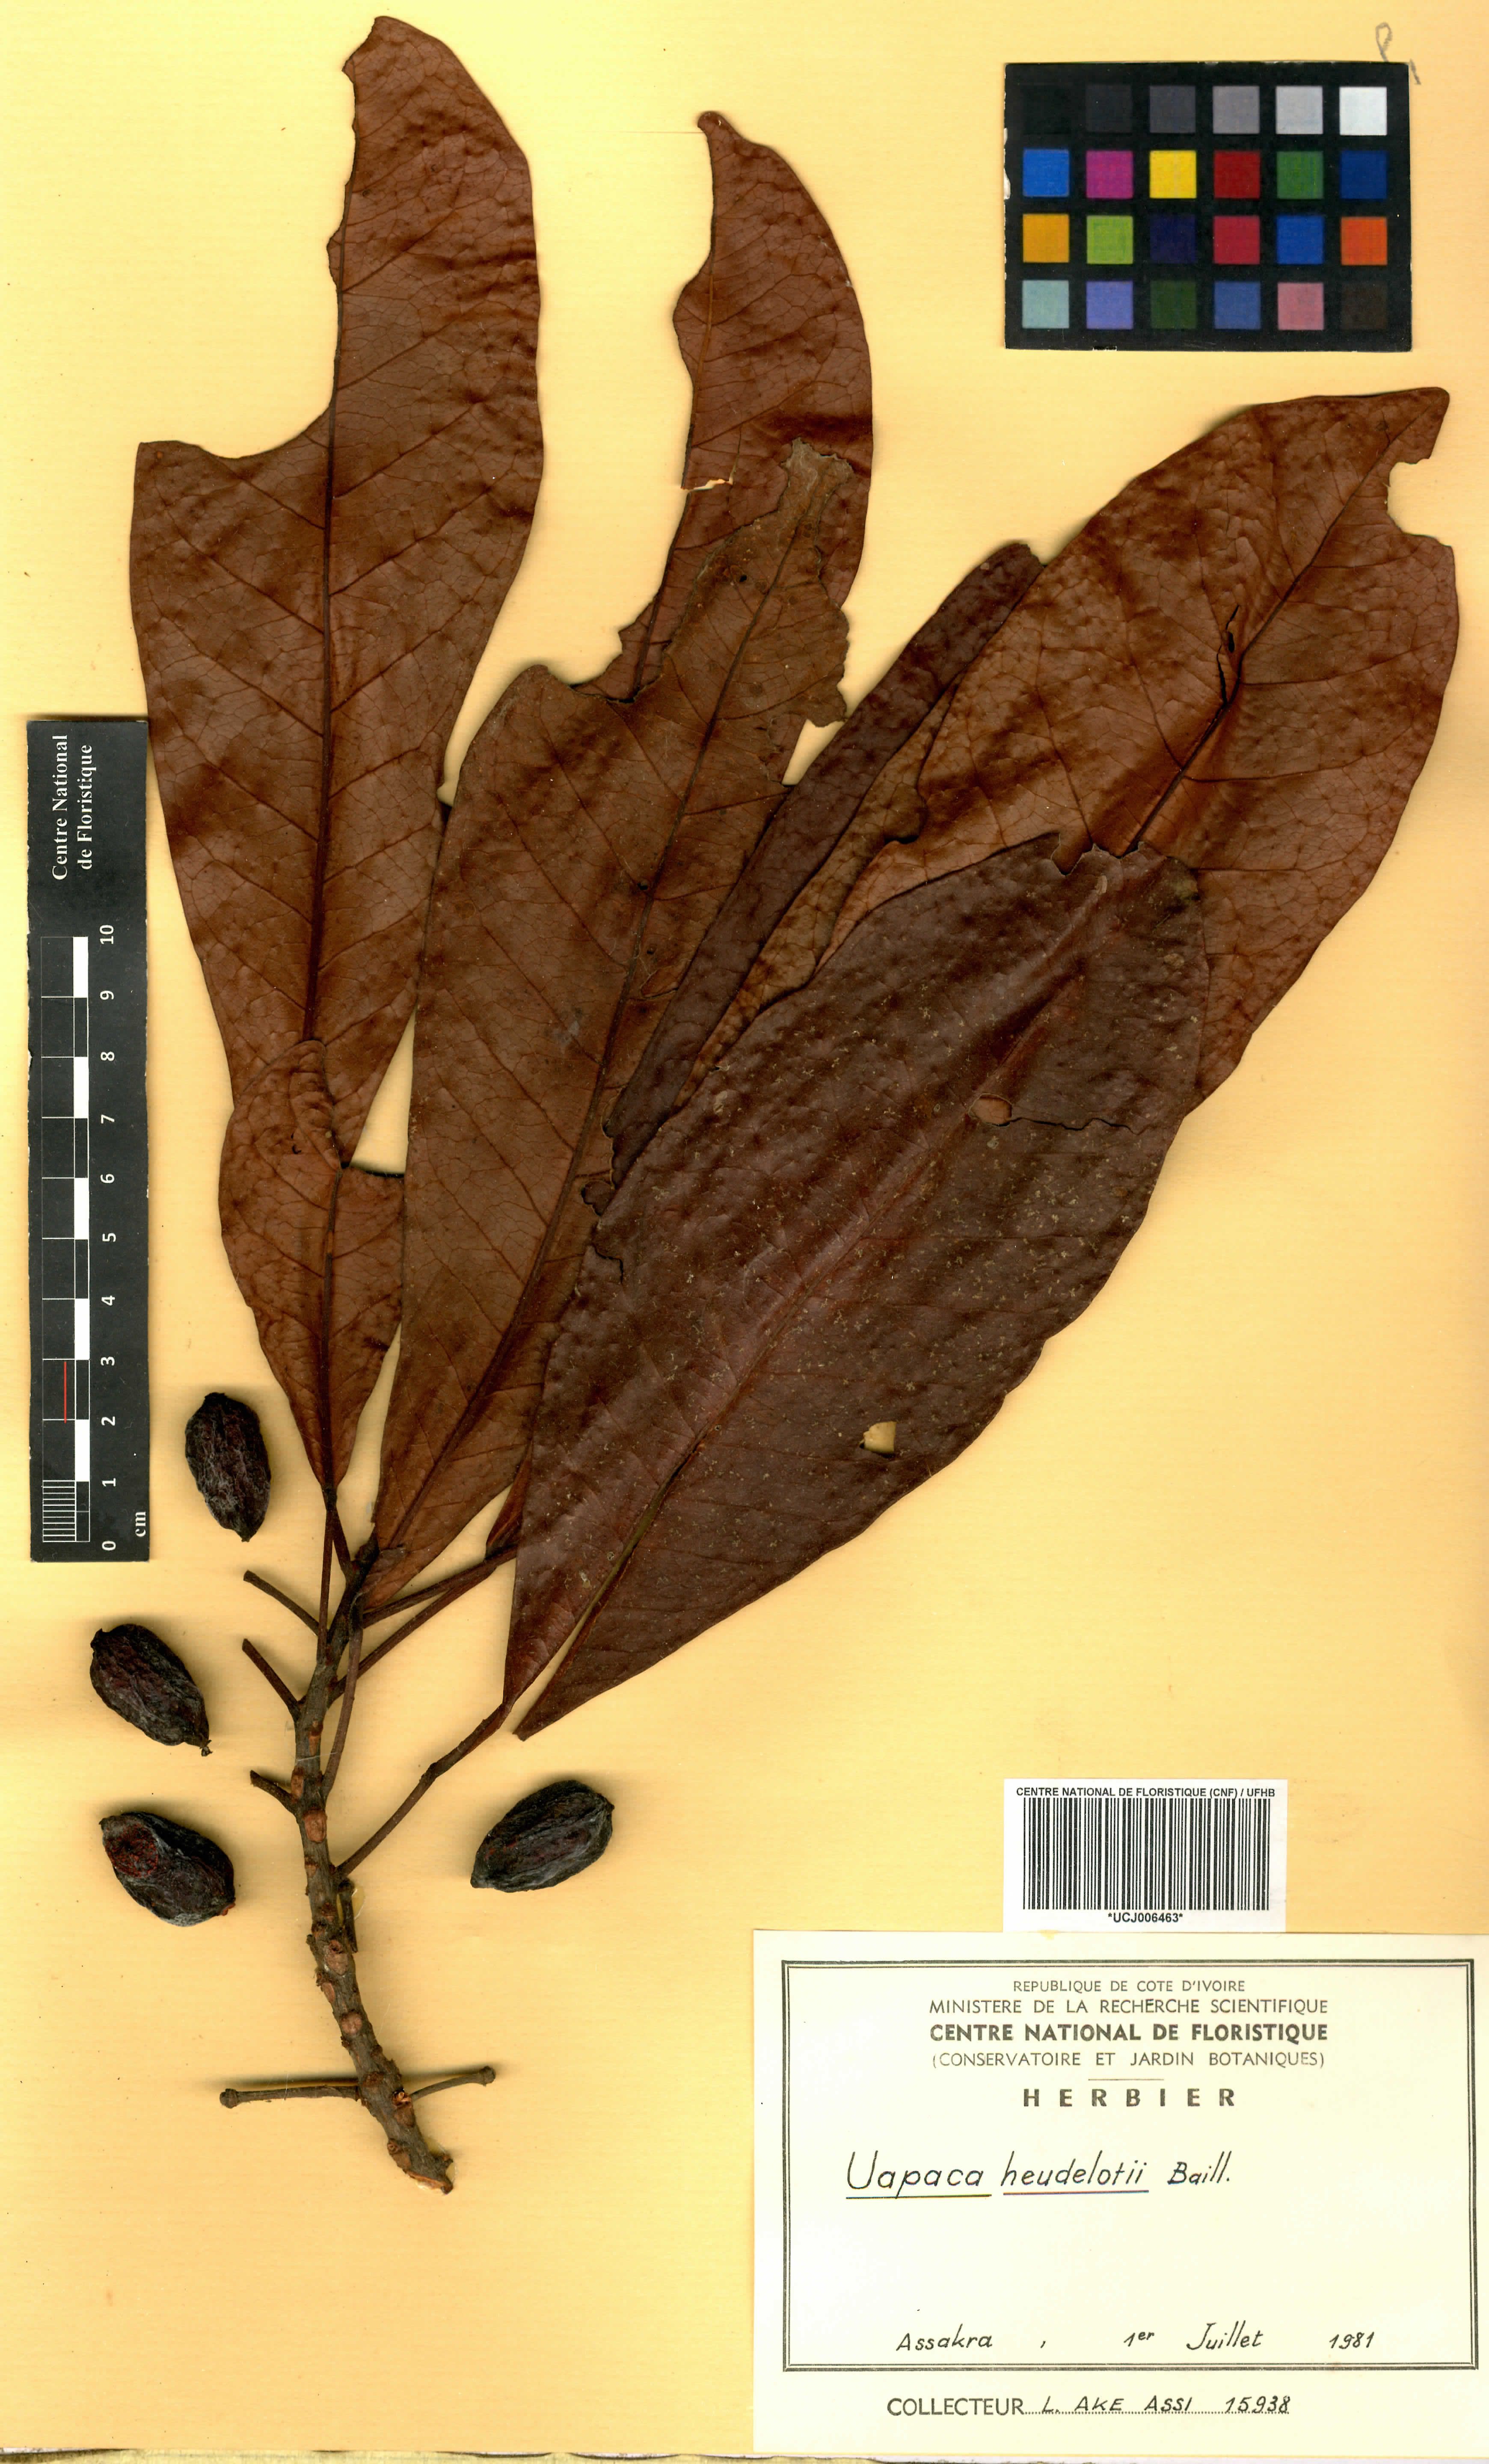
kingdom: Plantae
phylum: Tracheophyta
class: Magnoliopsida
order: Malpighiales
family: Phyllanthaceae
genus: Uapaca
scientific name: Uapaca heudelotii
